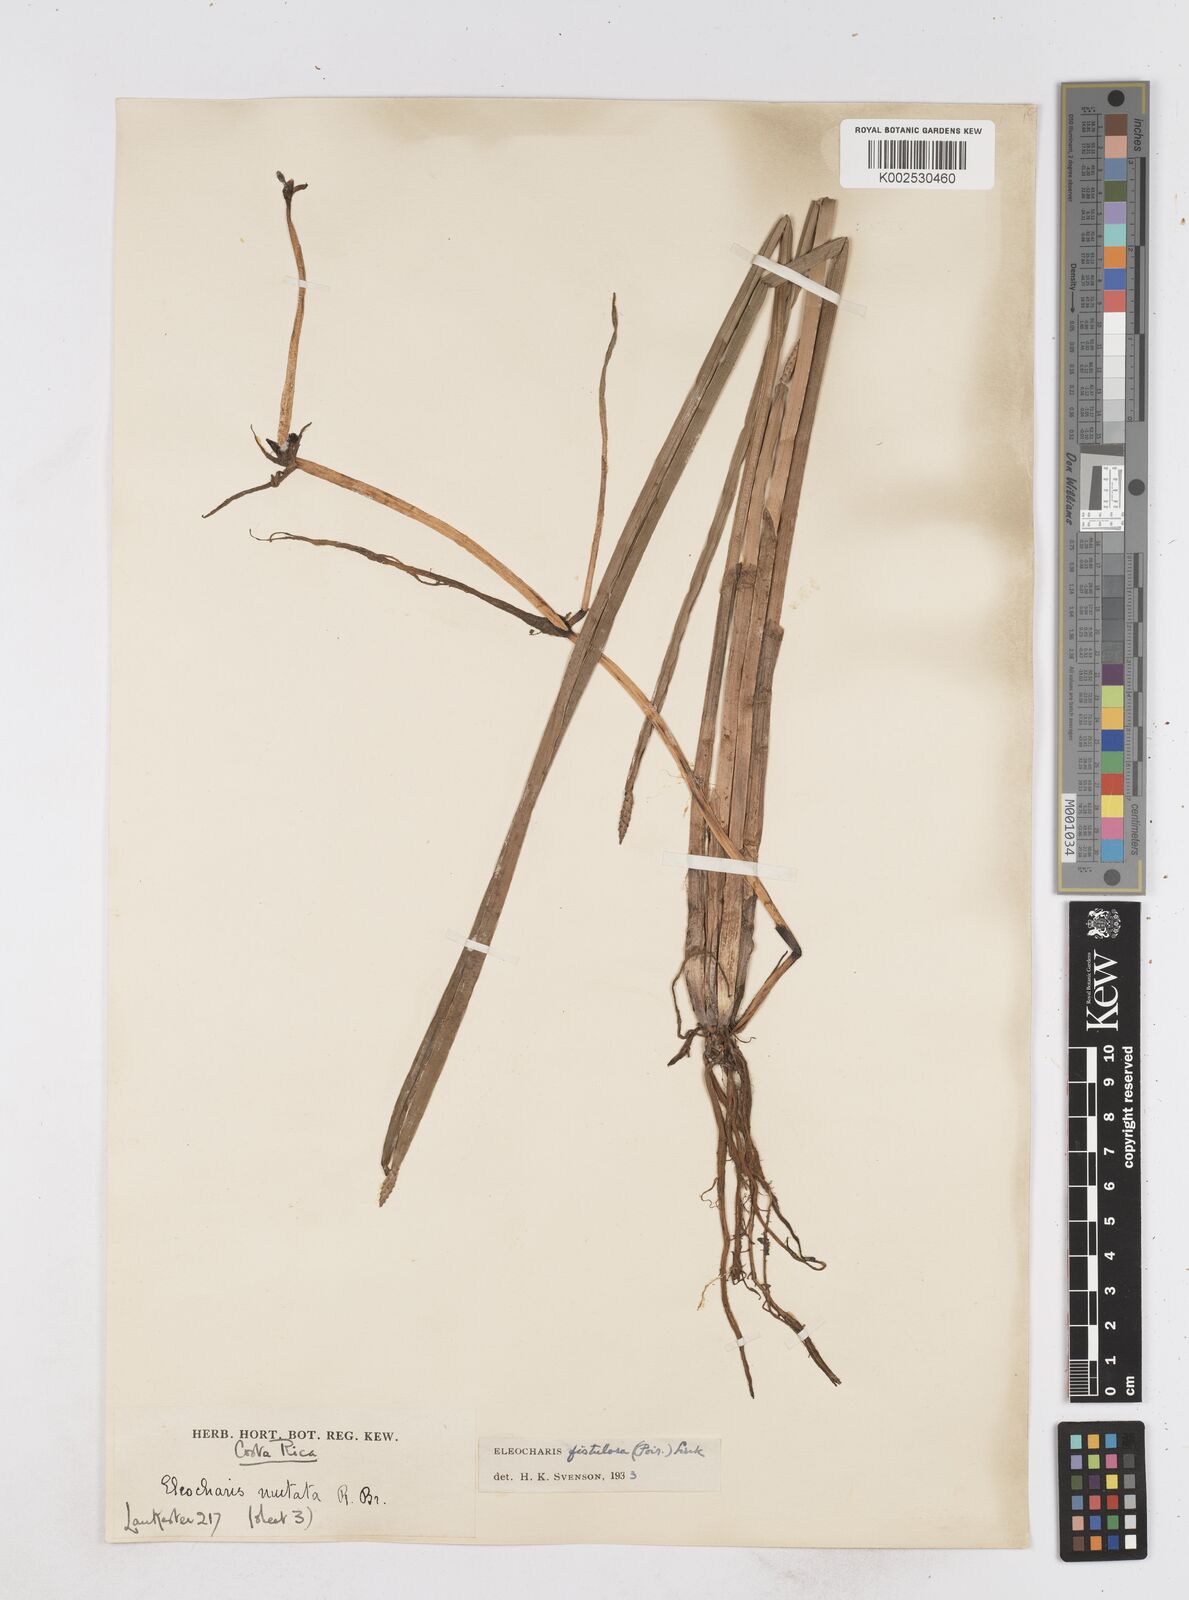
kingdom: Plantae
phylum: Tracheophyta
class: Liliopsida
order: Poales
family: Cyperaceae
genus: Eleocharis
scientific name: Eleocharis acutangula
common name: Acute spikerush
